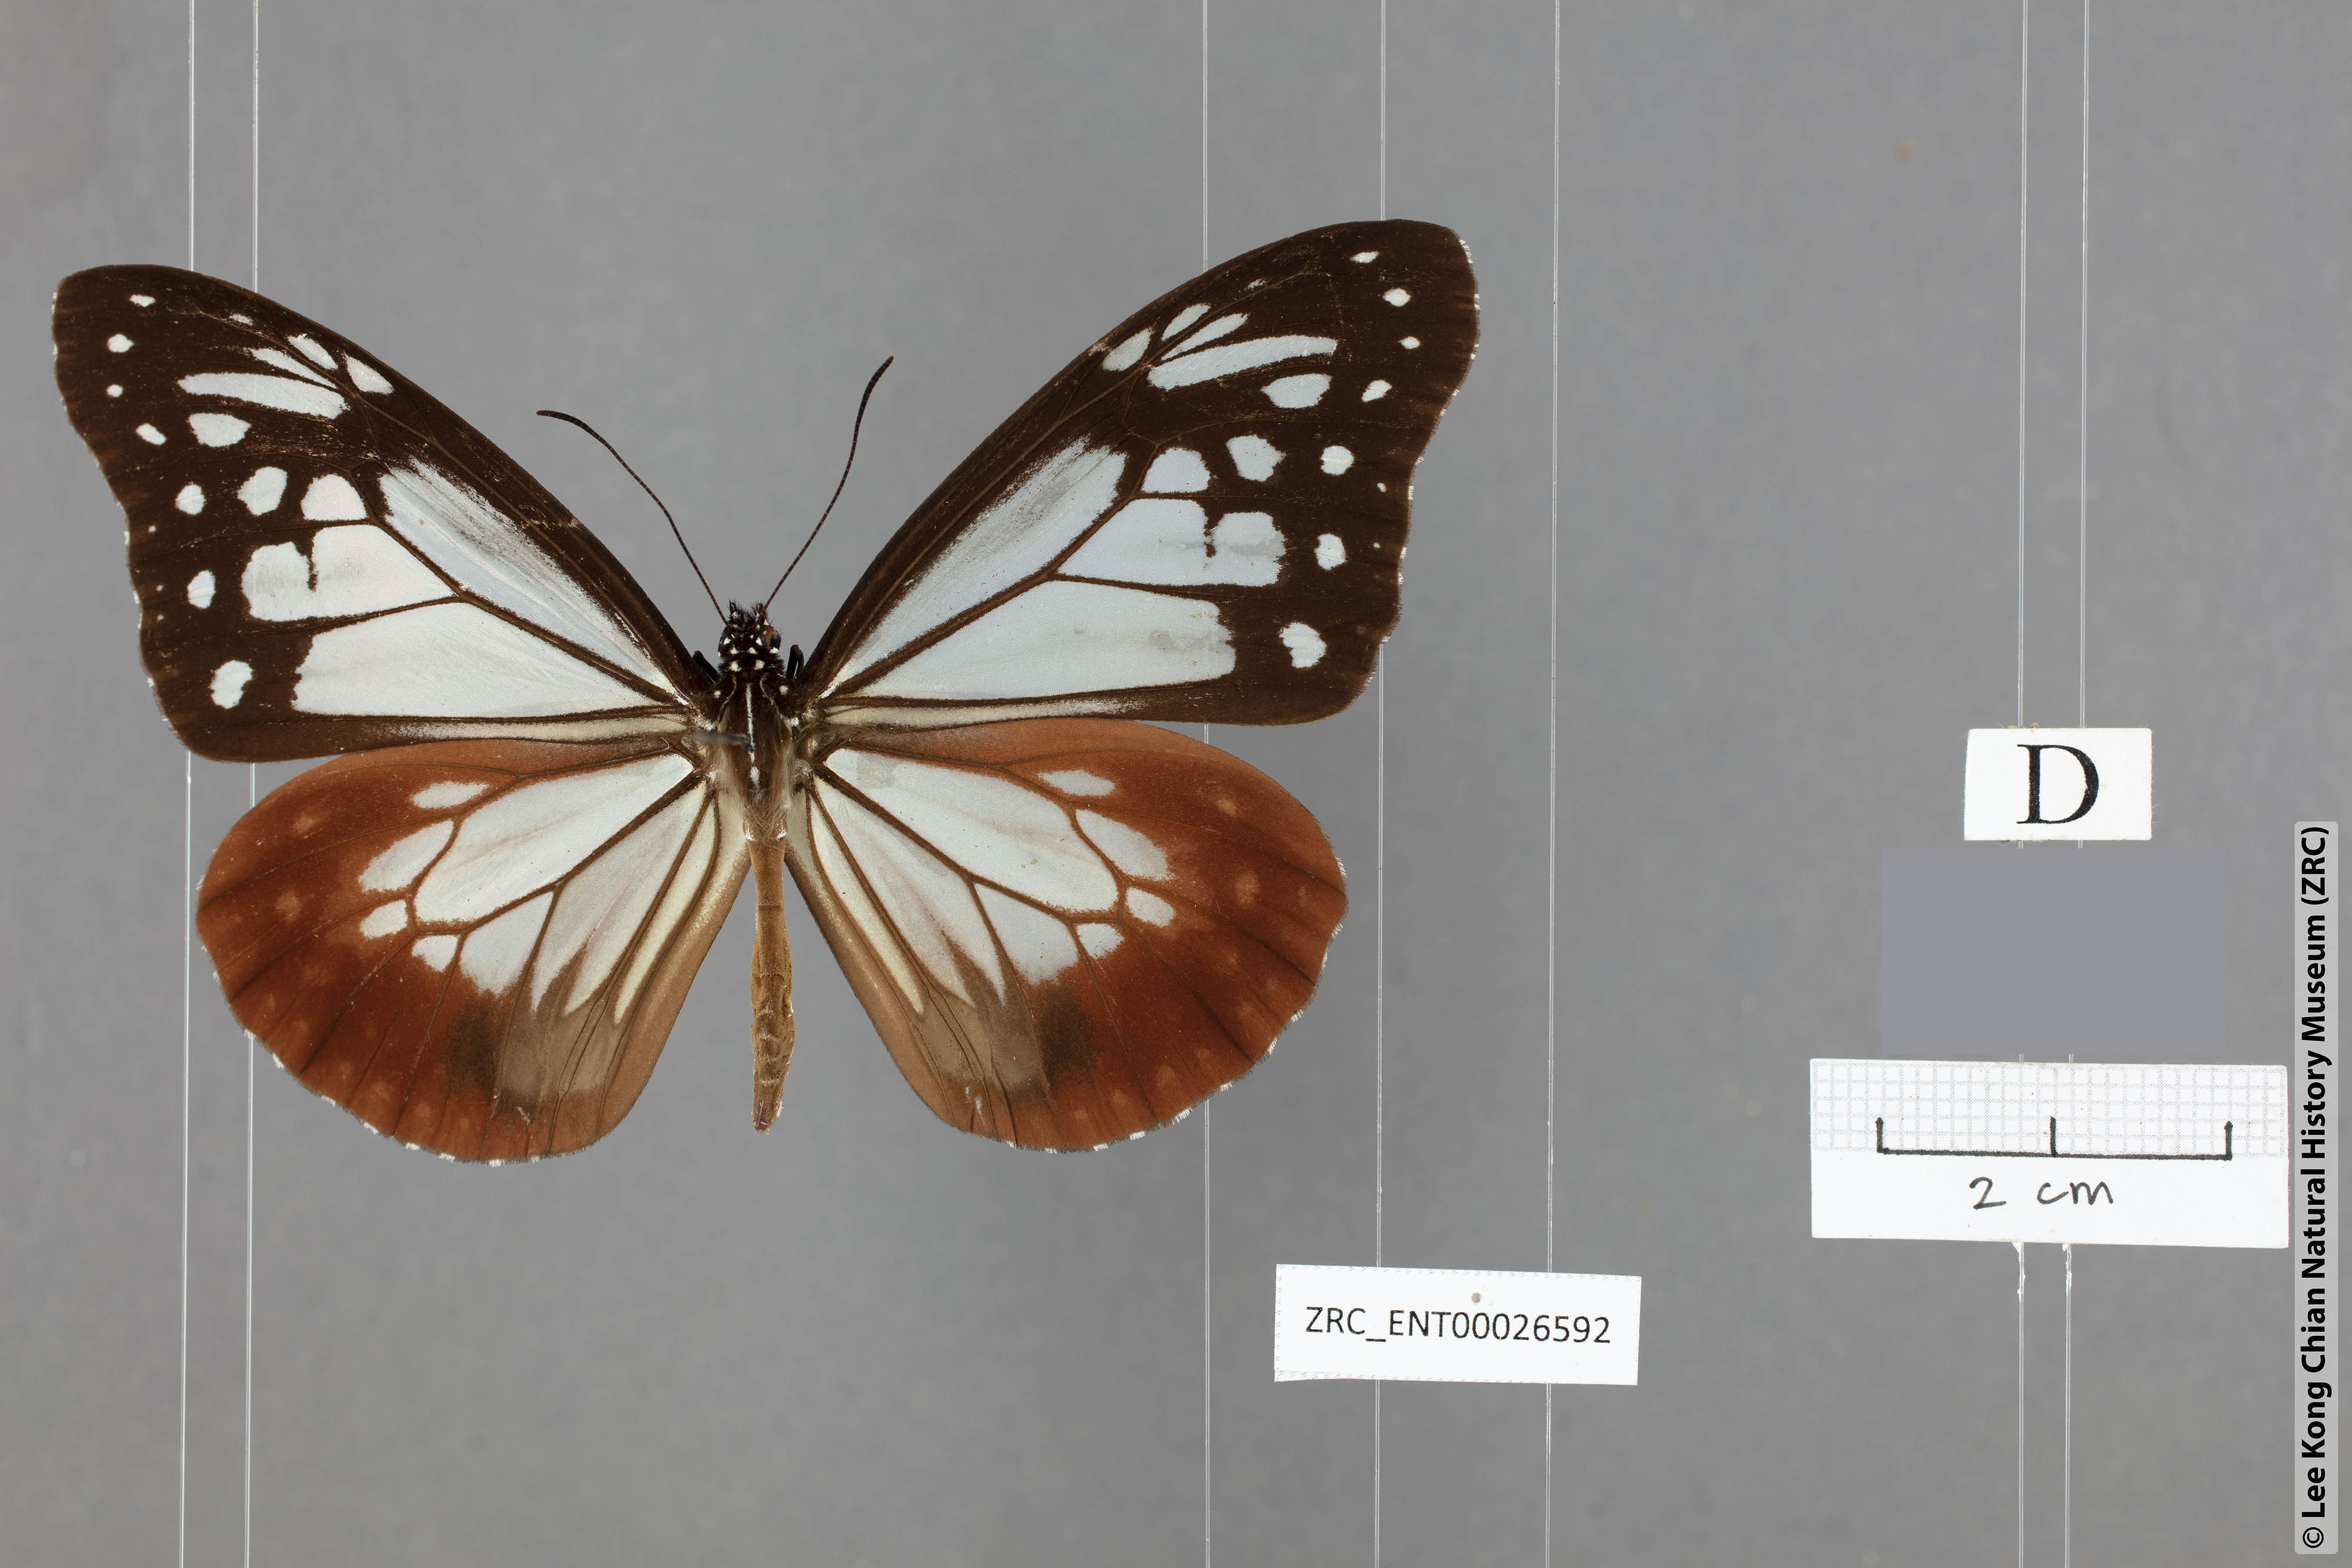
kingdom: Animalia
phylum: Arthropoda
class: Insecta
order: Lepidoptera
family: Nymphalidae
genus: Tirumala
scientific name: Tirumala gautama
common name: Scarce blue tiger
